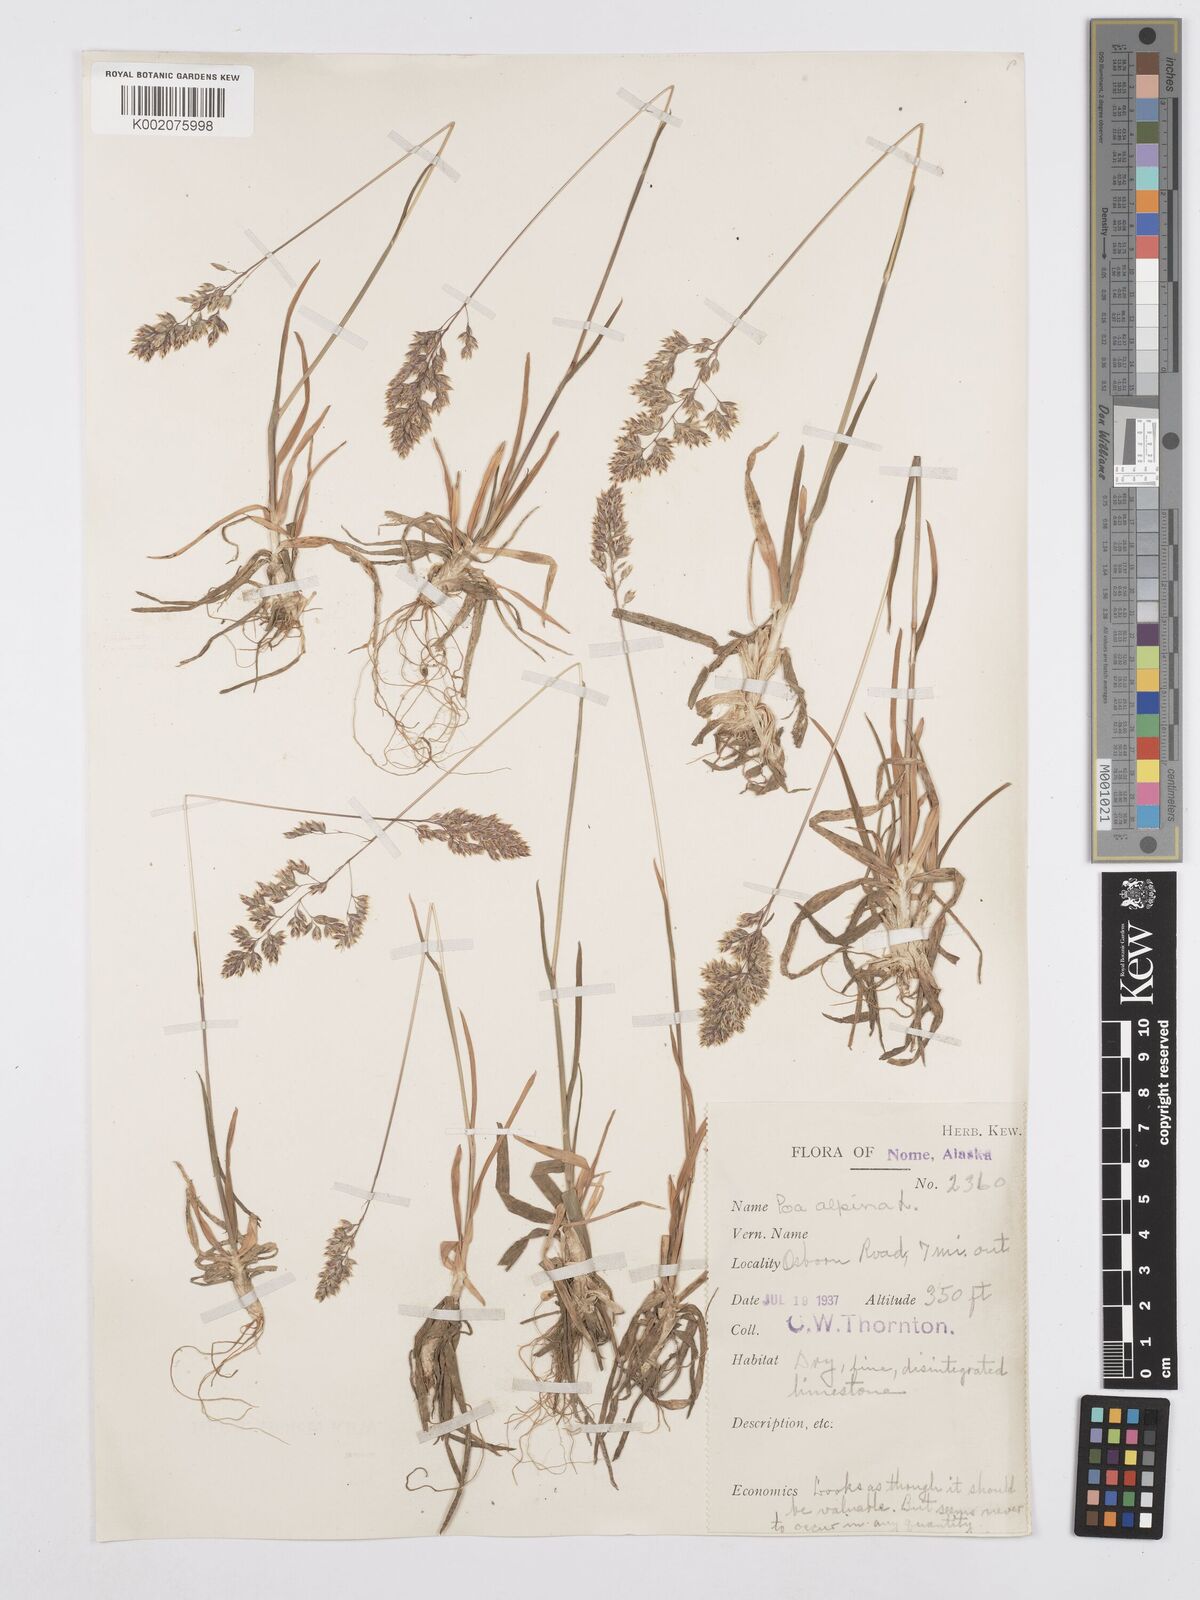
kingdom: Plantae
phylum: Tracheophyta
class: Liliopsida
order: Poales
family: Poaceae
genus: Poa
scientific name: Poa alpina
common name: Alpine bluegrass
